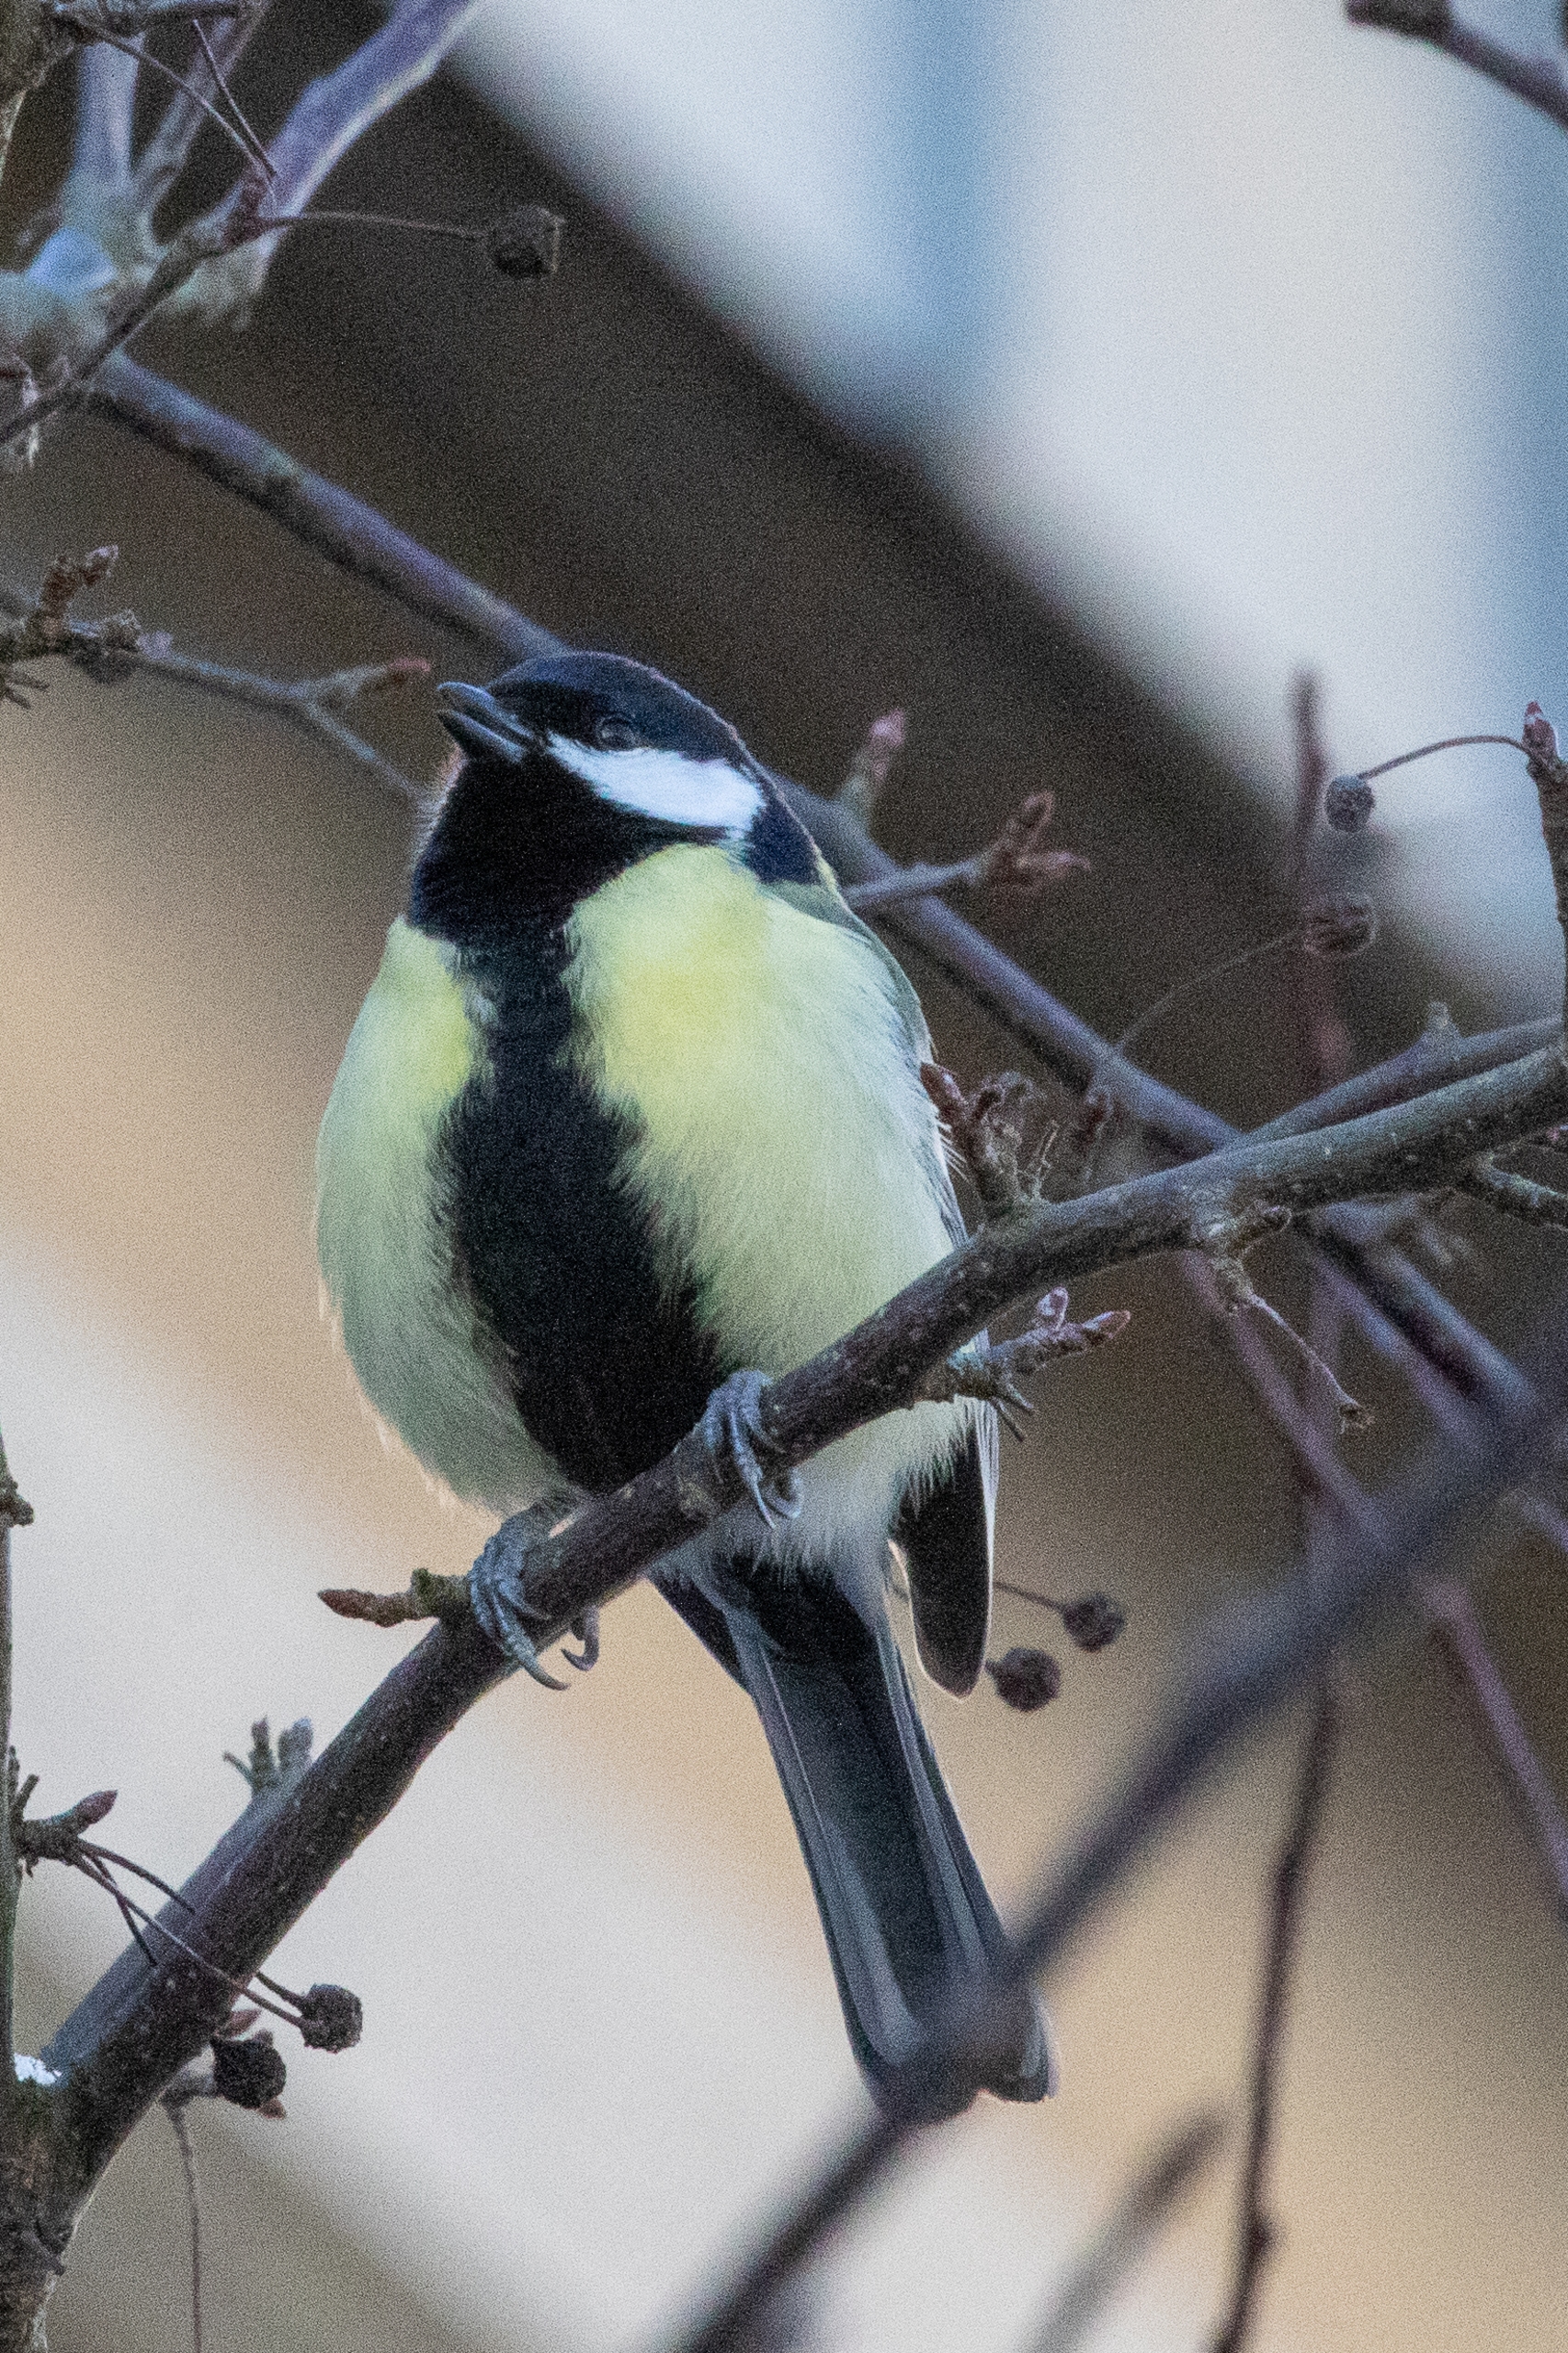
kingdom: Animalia
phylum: Chordata
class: Aves
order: Passeriformes
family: Paridae
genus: Parus
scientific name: Parus major
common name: Musvit
